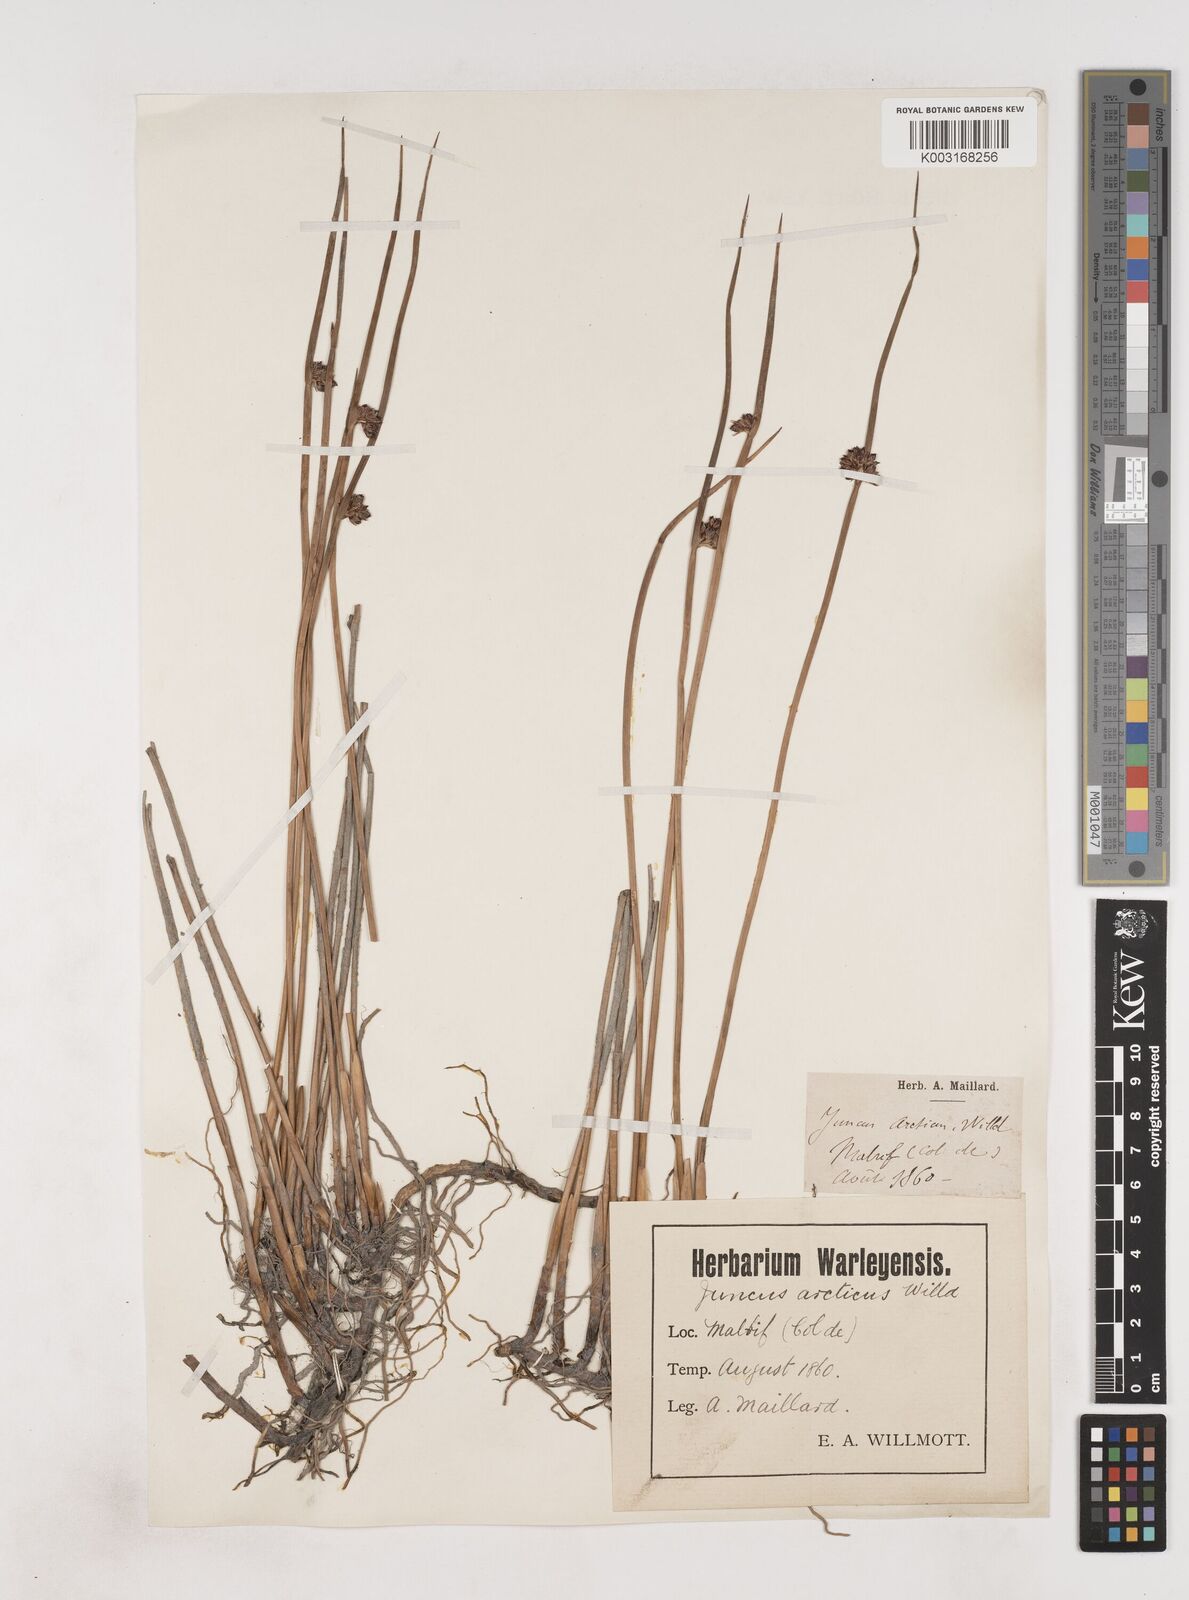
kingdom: Plantae
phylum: Tracheophyta
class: Liliopsida
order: Poales
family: Juncaceae
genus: Juncus
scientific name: Juncus arcticus
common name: Arctic rush
